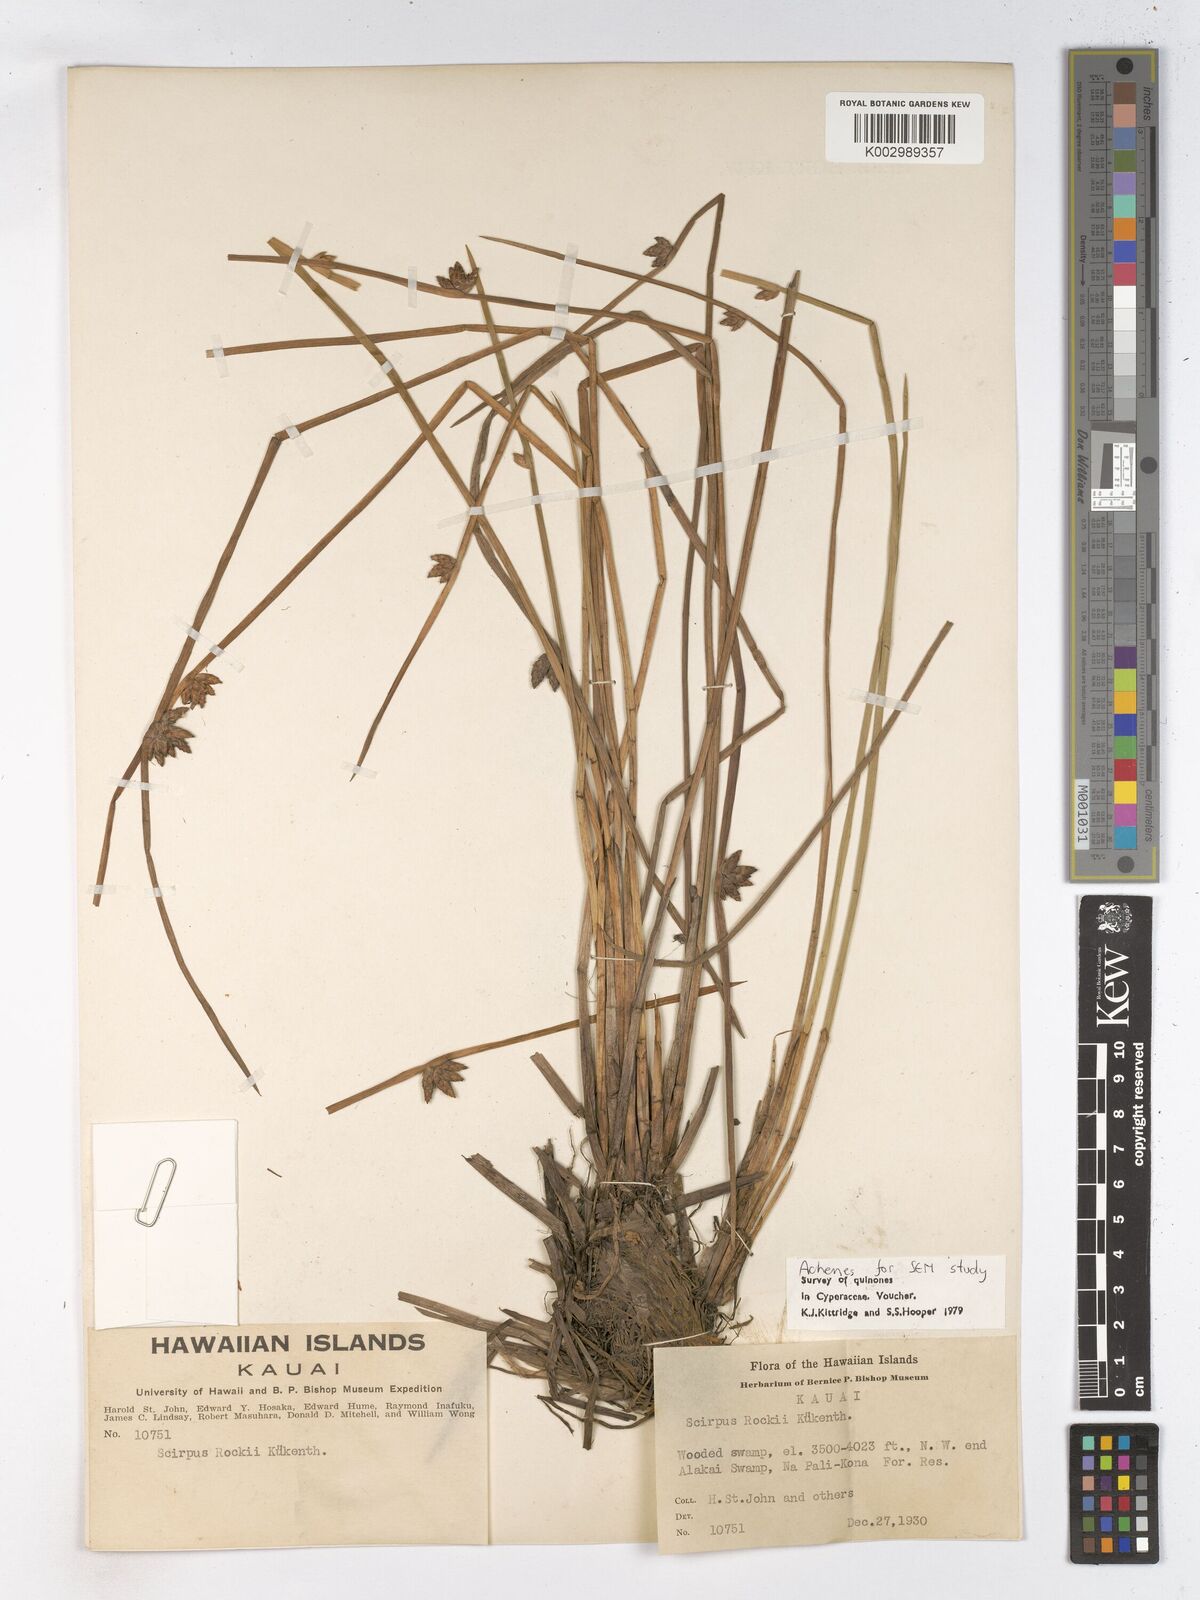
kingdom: Plantae
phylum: Tracheophyta
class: Liliopsida
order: Poales
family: Cyperaceae
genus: Schoenoplectiella
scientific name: Schoenoplectiella juncoides
